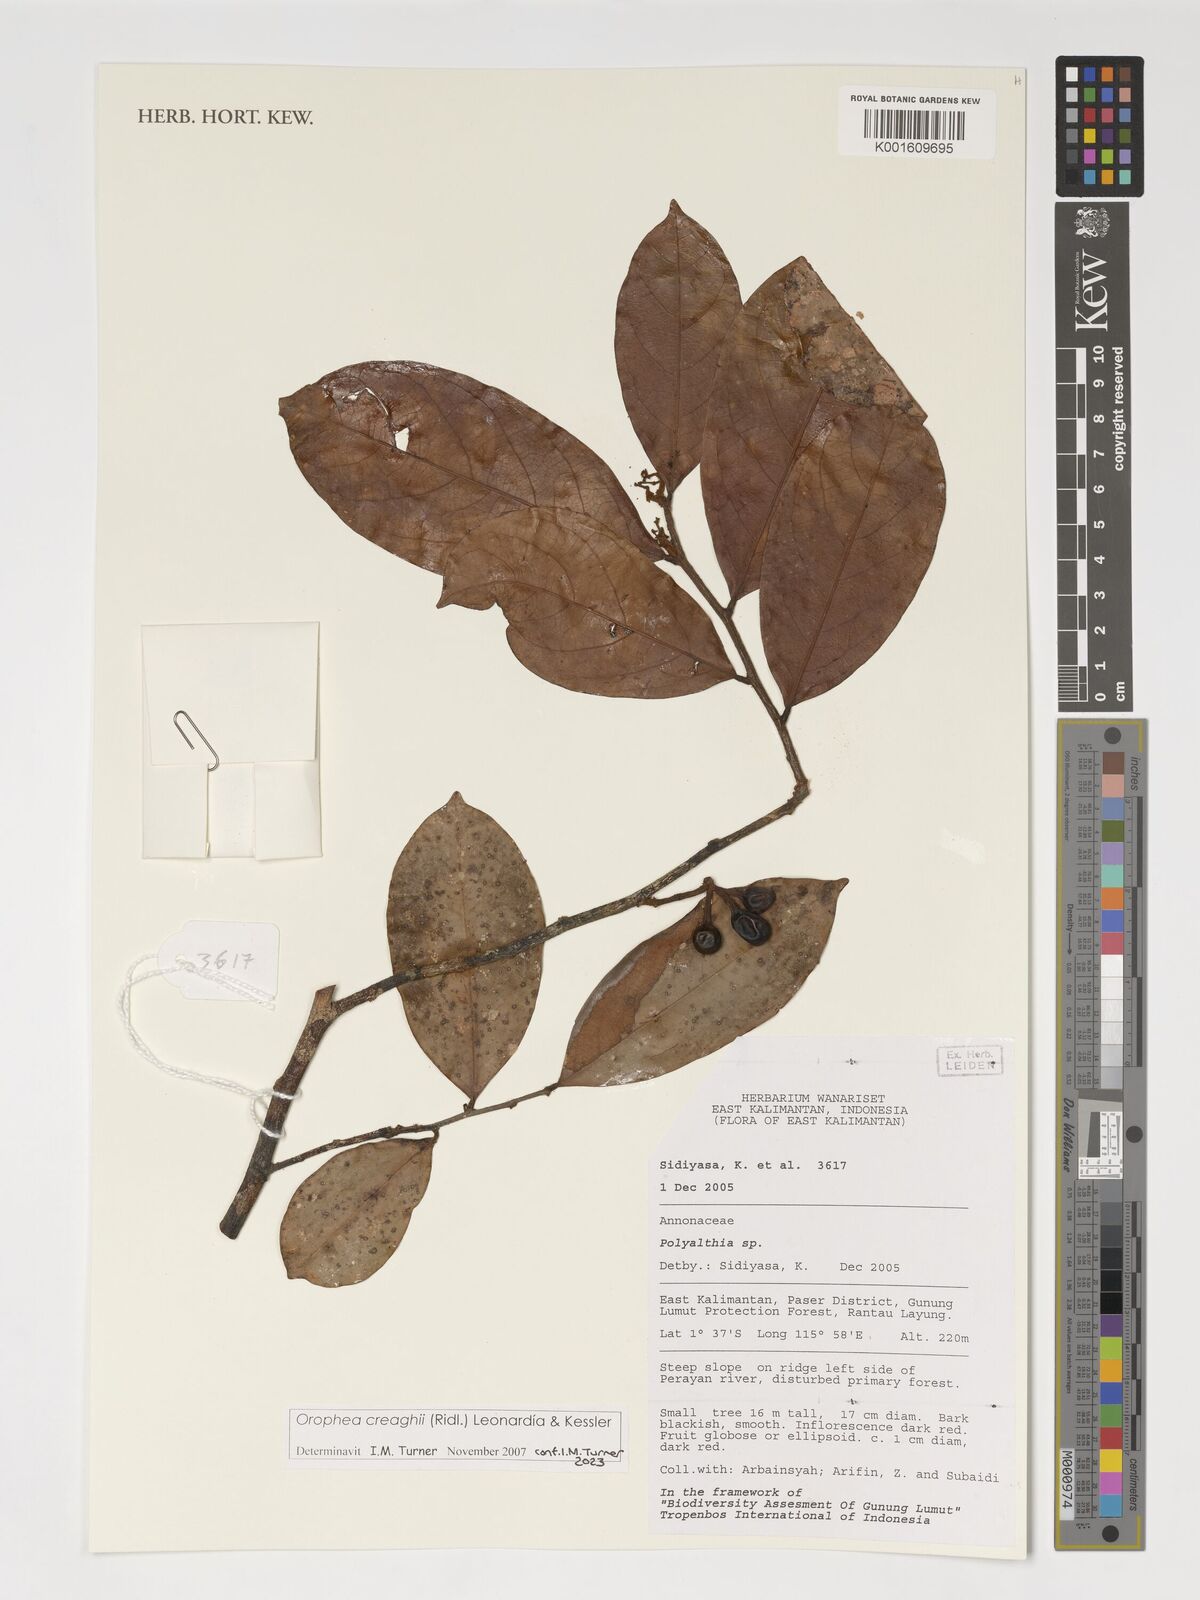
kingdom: Plantae
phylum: Tracheophyta
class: Magnoliopsida
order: Magnoliales
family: Annonaceae
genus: Orophea
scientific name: Orophea creaghii
